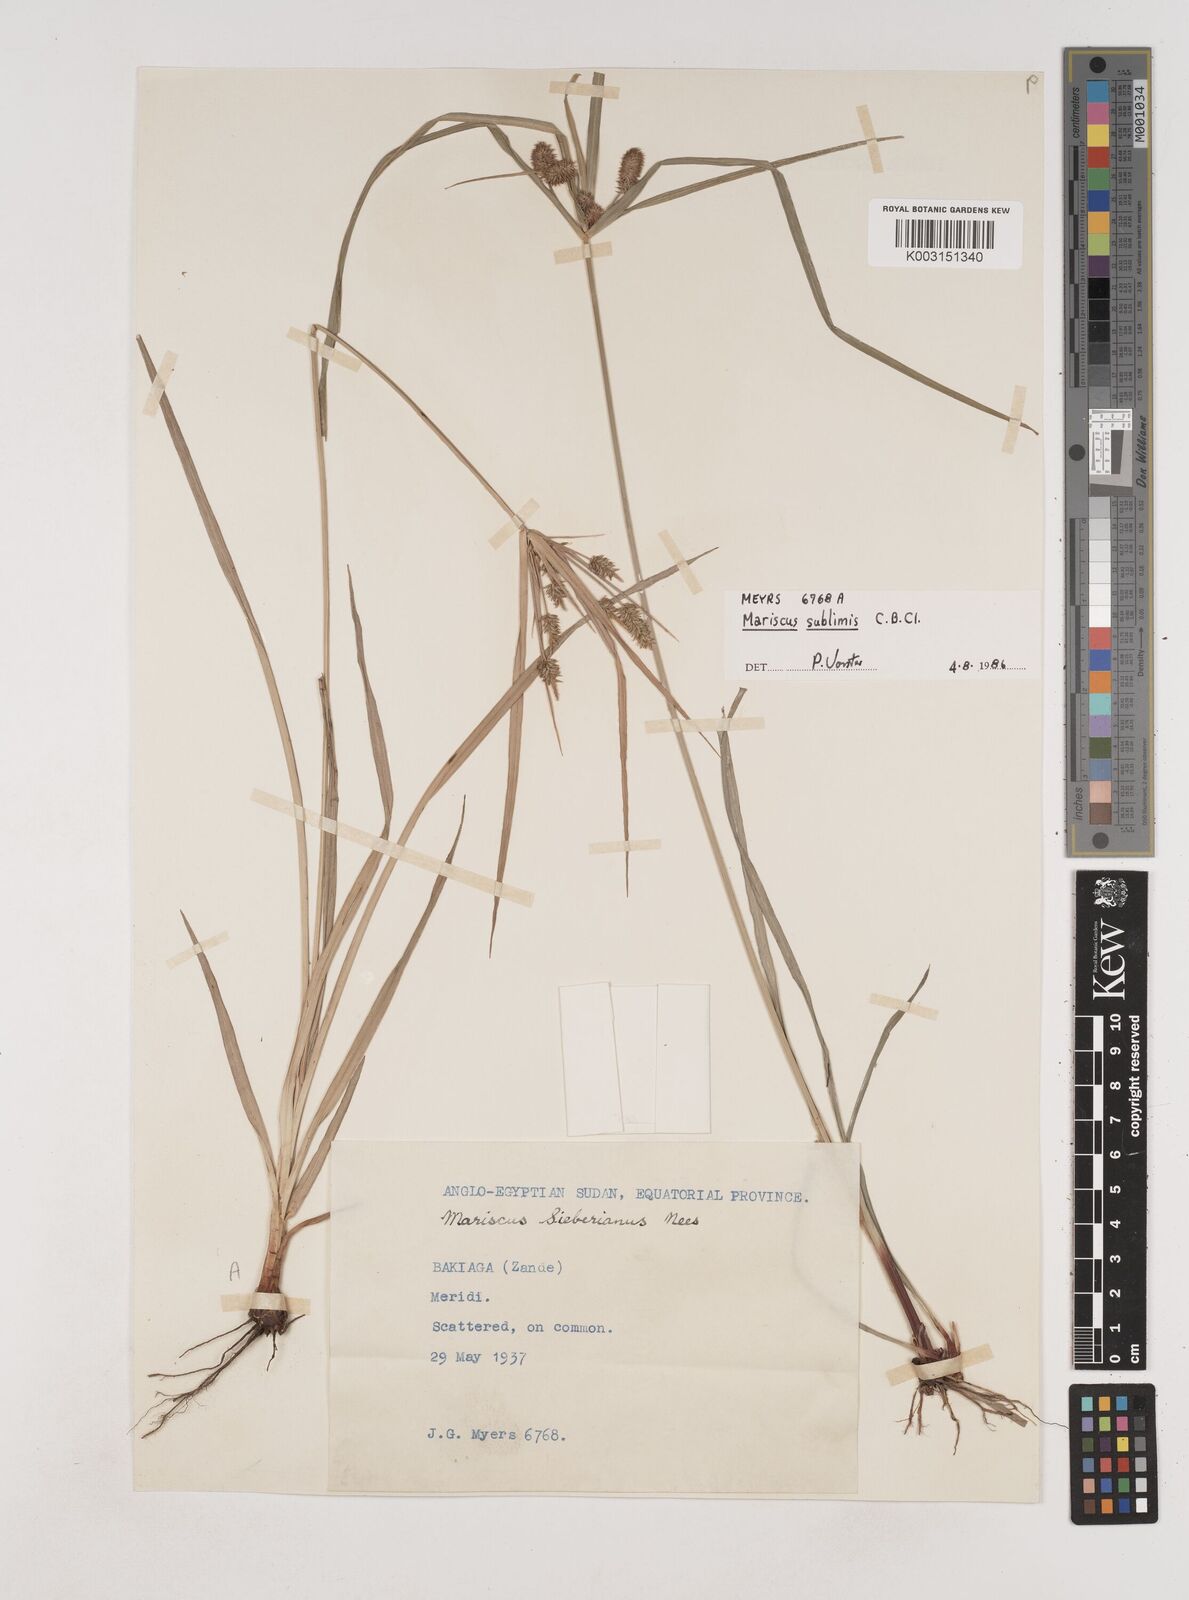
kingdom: Plantae
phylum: Tracheophyta
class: Liliopsida
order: Poales
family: Cyperaceae
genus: Cyperus
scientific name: Cyperus cyperoides
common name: Pacific island flat sedge
